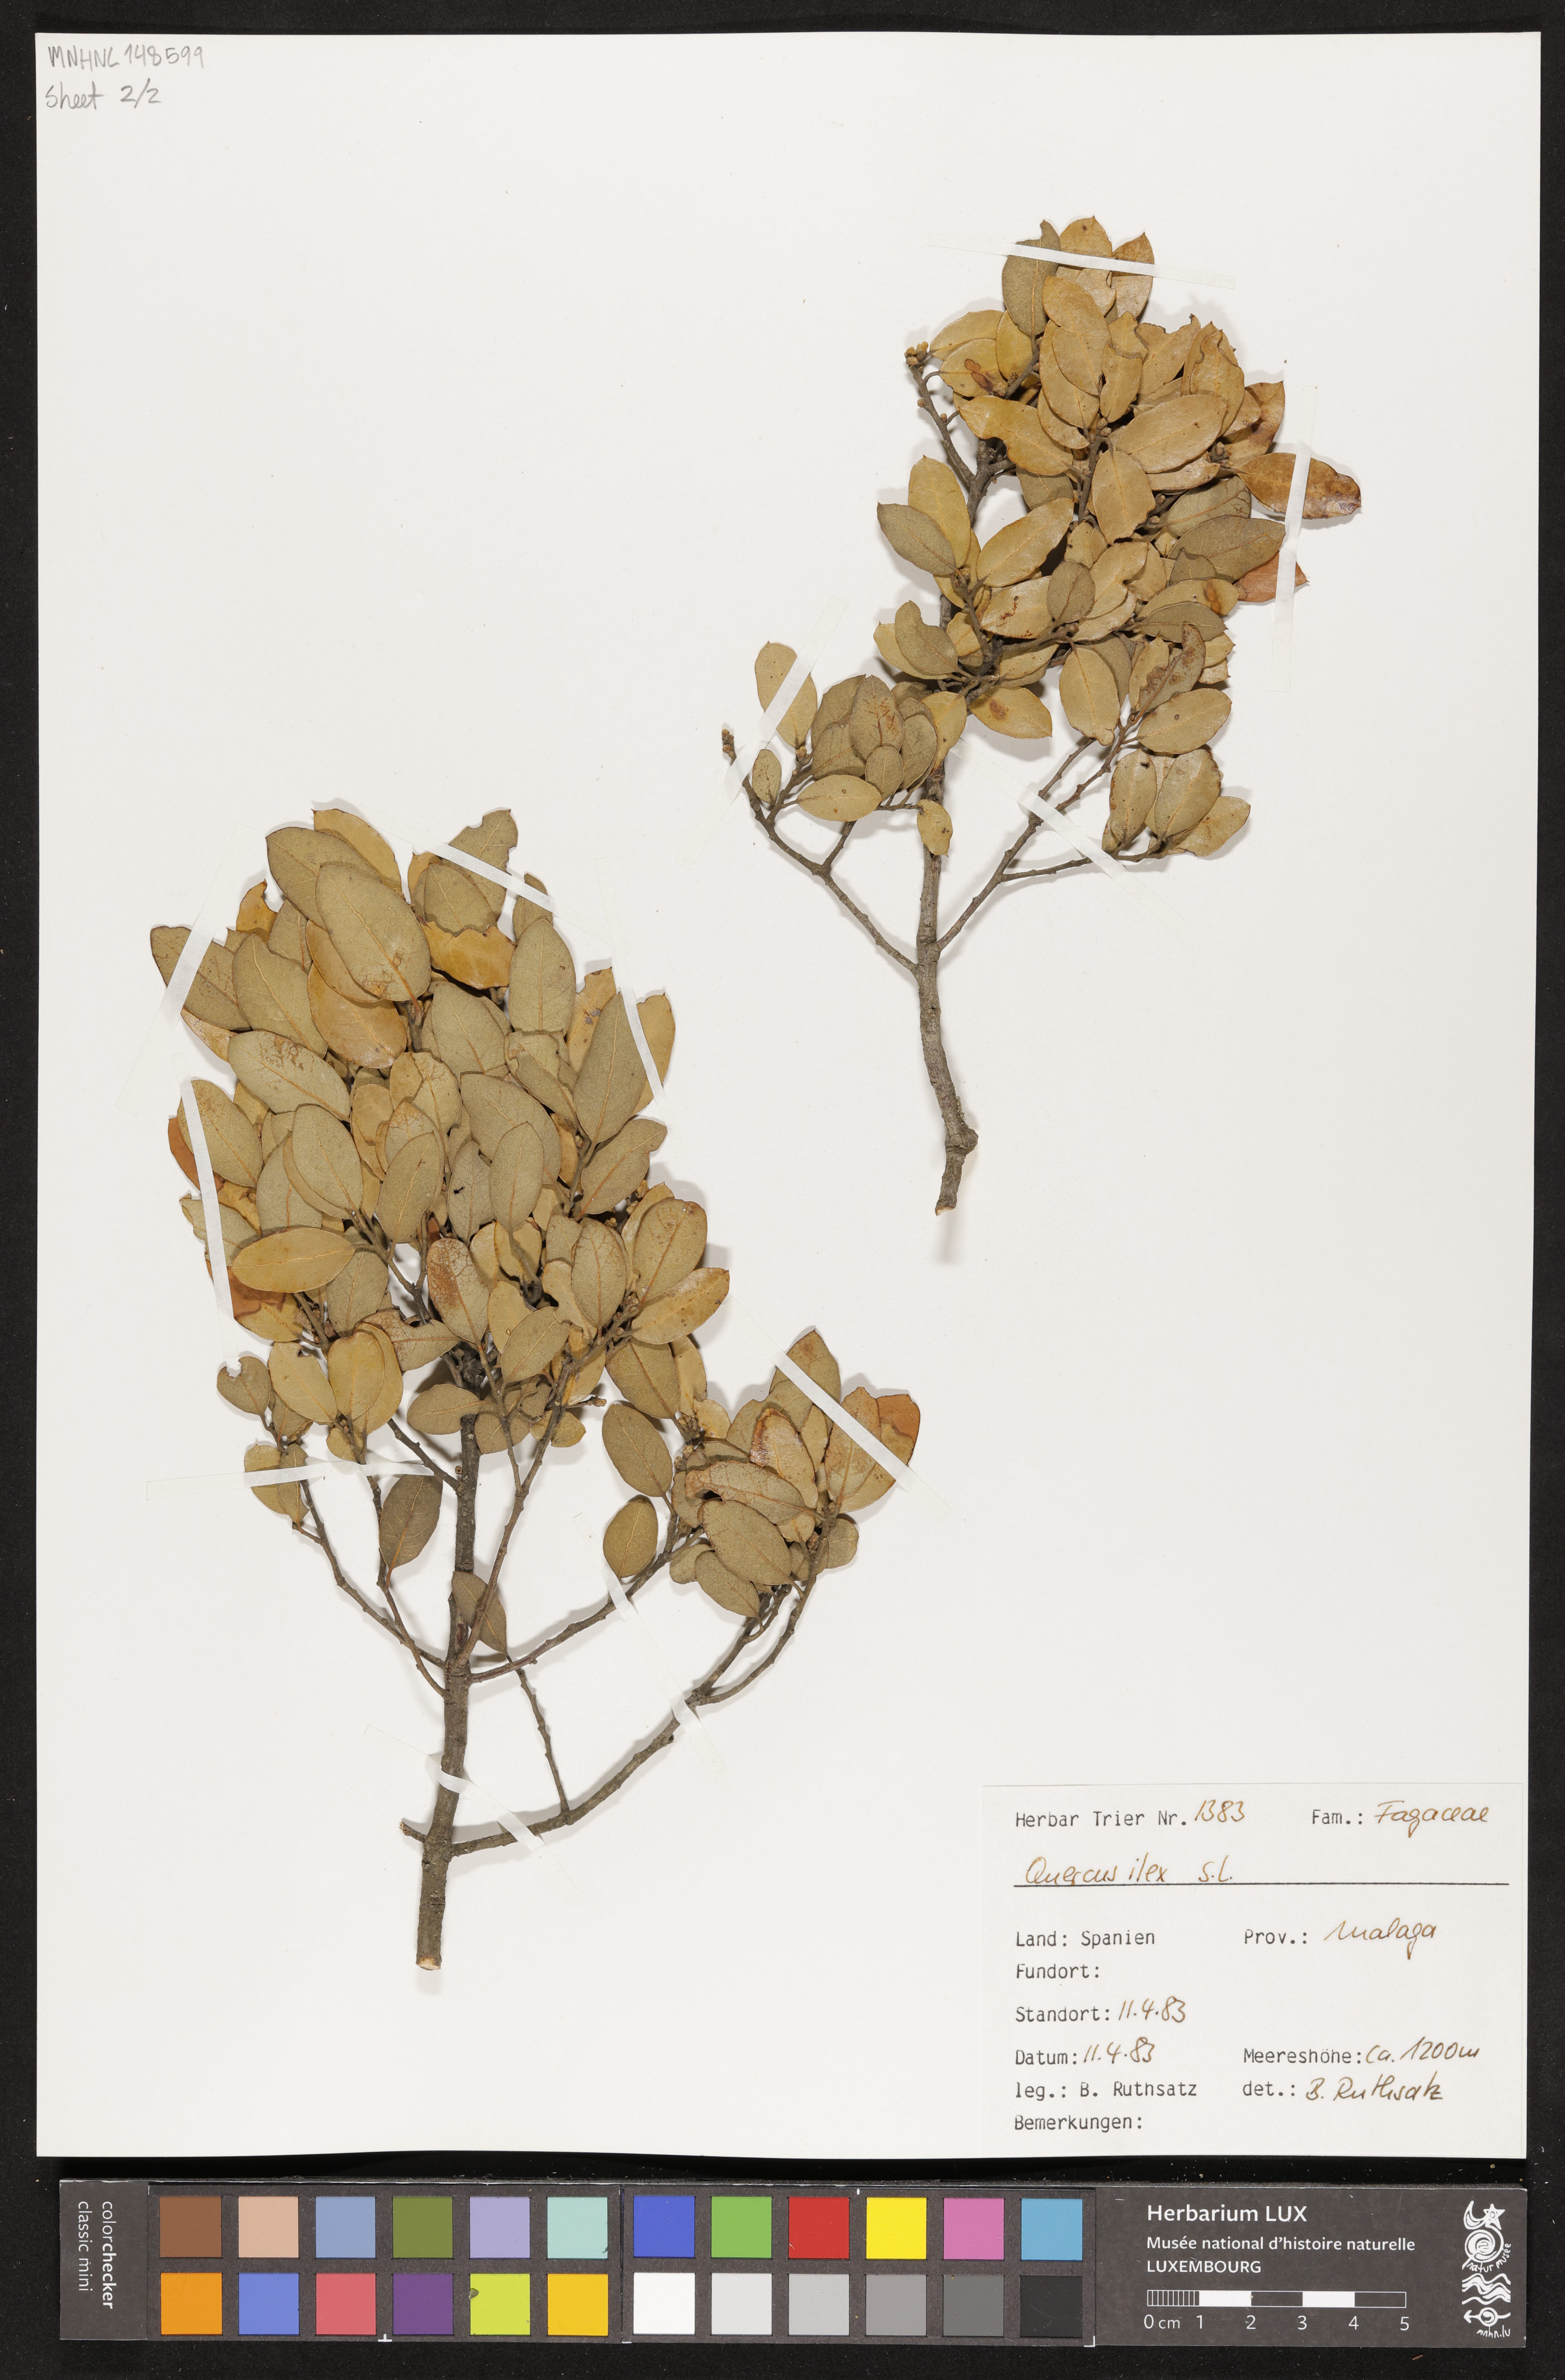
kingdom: Plantae
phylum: Tracheophyta
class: Magnoliopsida
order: Fagales
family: Fagaceae
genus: Quercus
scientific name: Quercus ilex
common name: Evergreen oak
